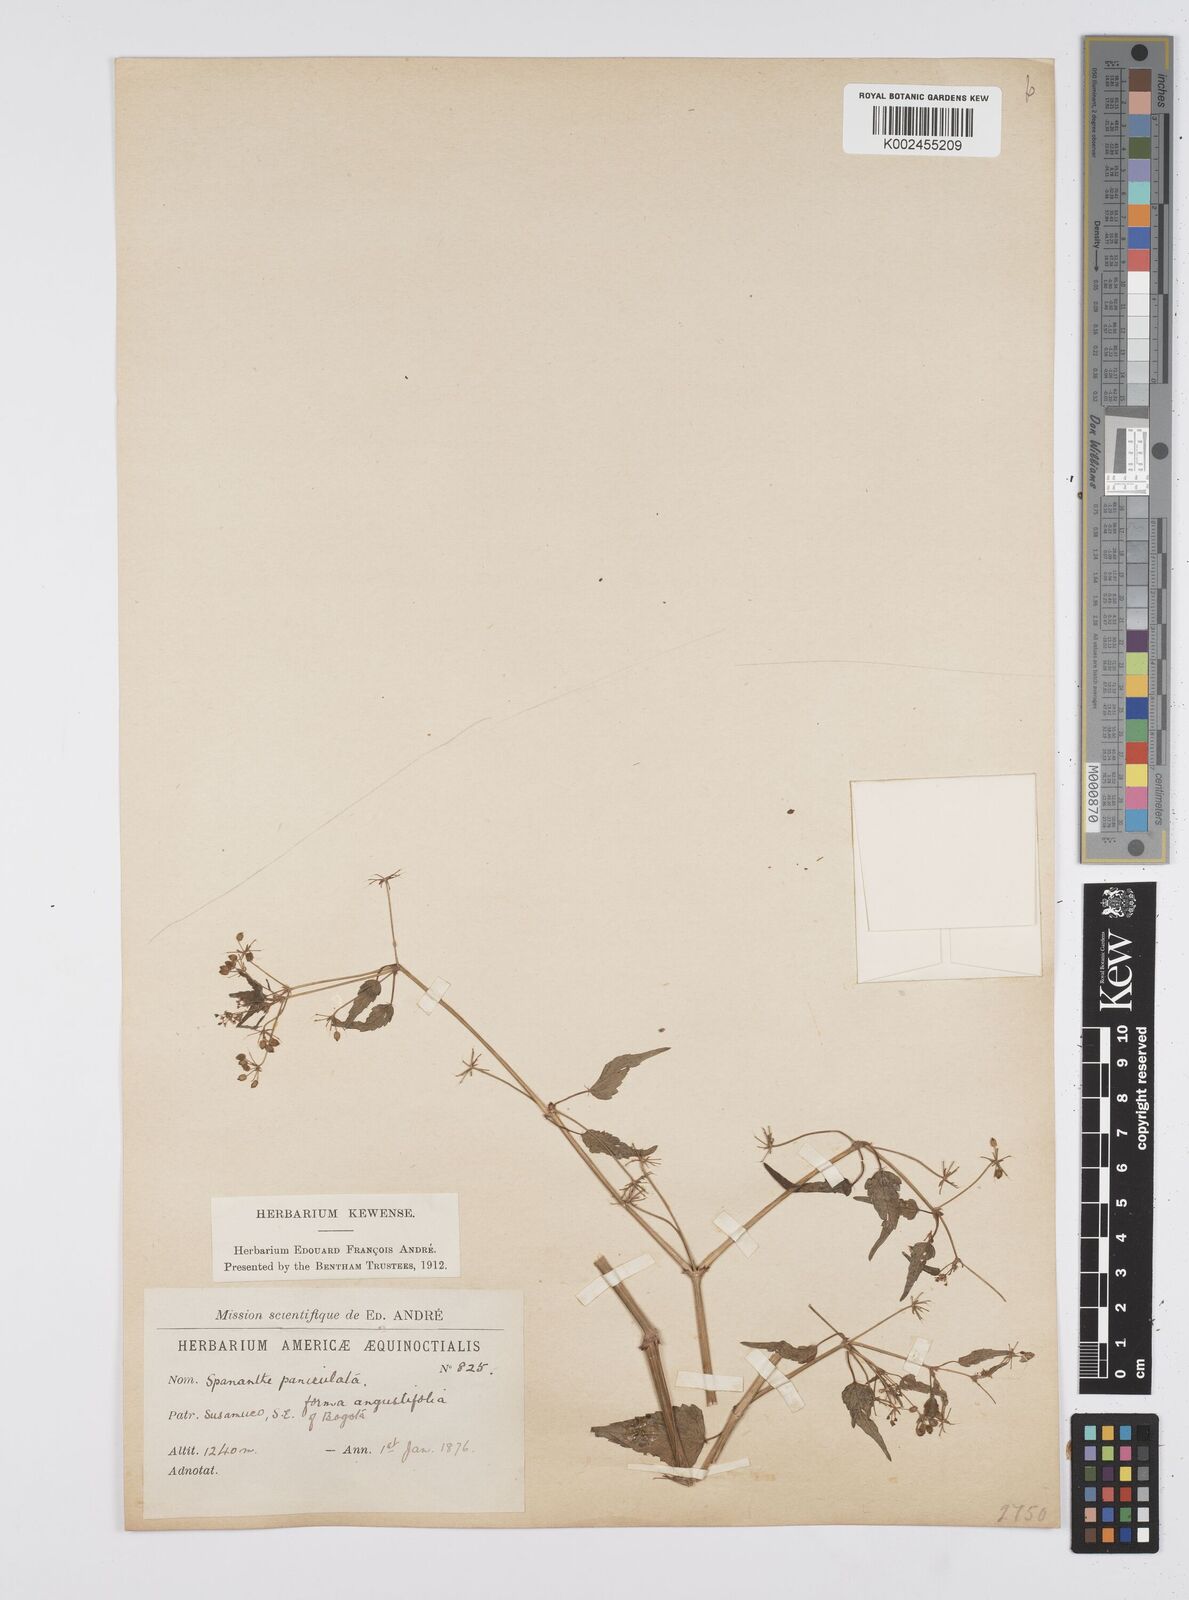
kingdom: Plantae
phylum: Tracheophyta
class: Magnoliopsida
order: Apiales
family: Apiaceae
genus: Azorella
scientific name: Azorella
